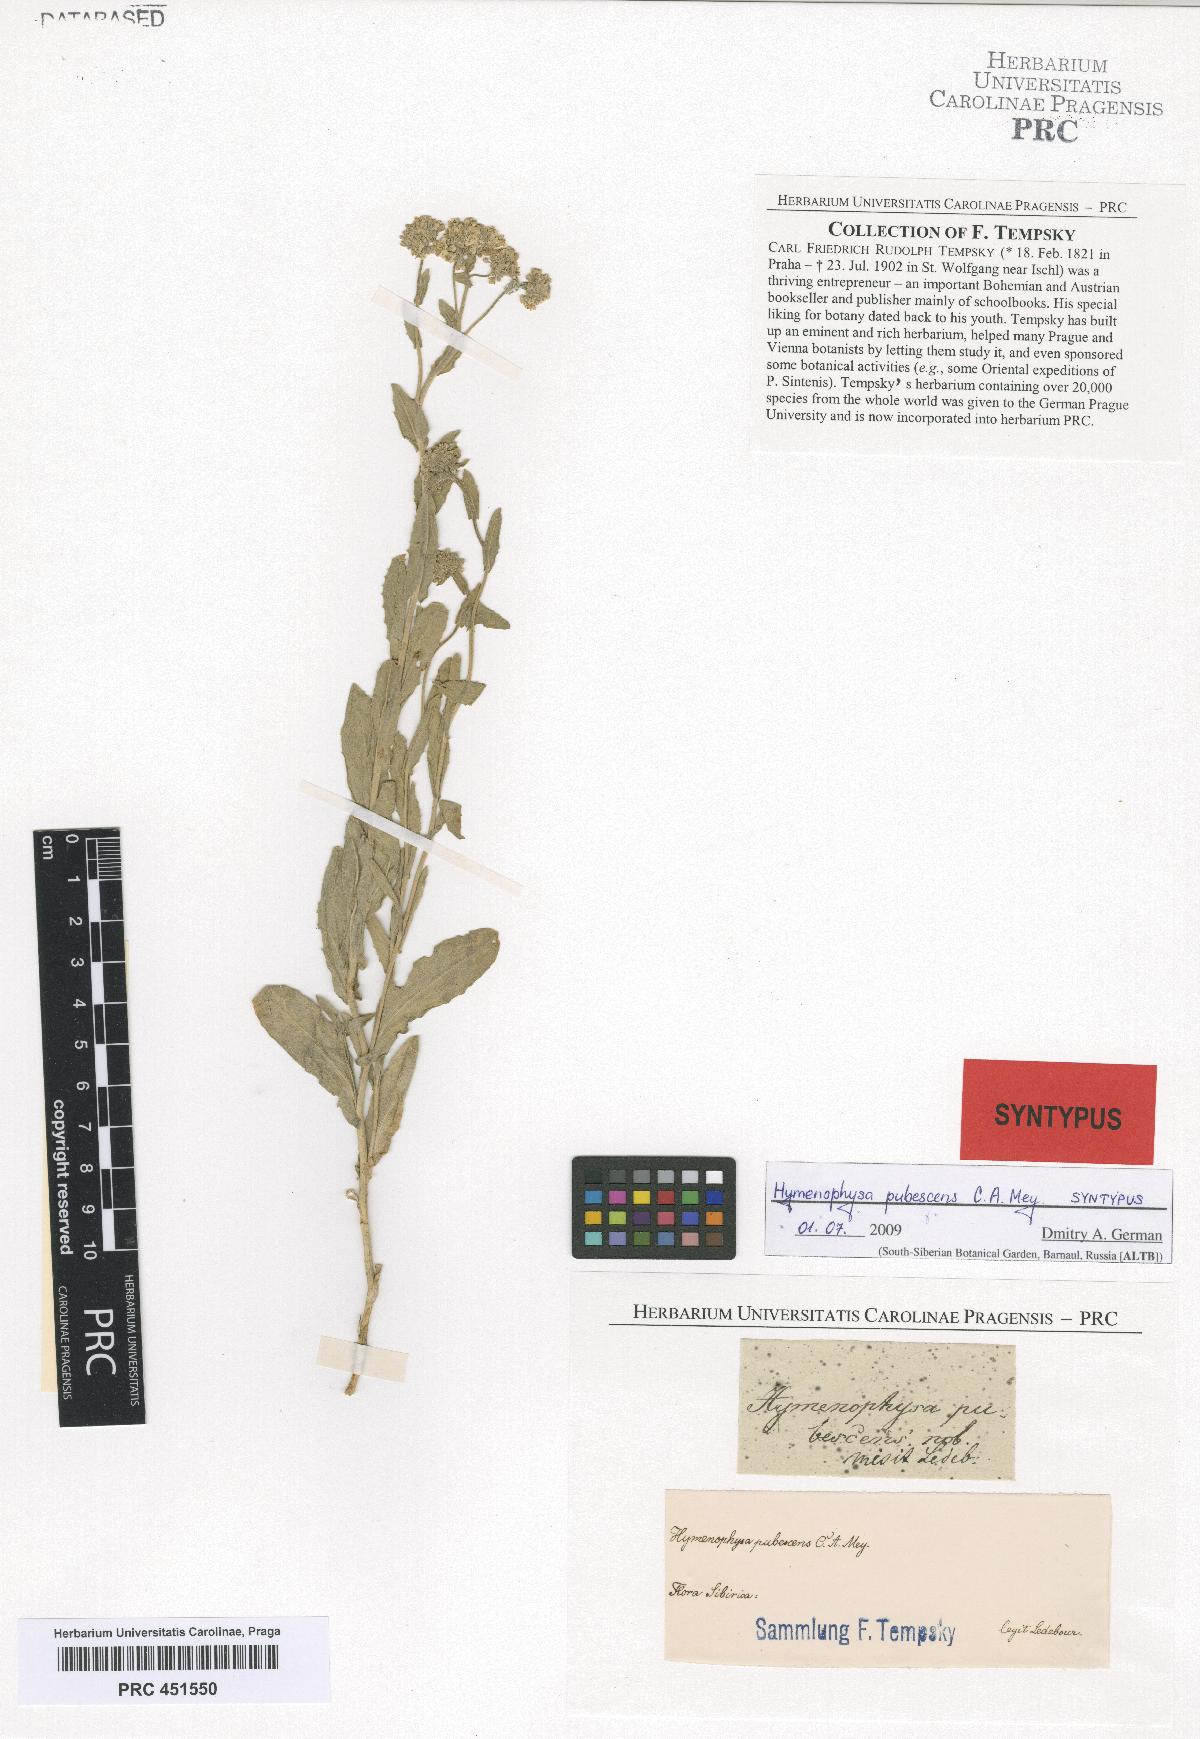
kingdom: Plantae
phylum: Tracheophyta
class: Magnoliopsida
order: Brassicales
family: Brassicaceae
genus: Lepidium
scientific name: Lepidium appelianum
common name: Hairy whitetop
